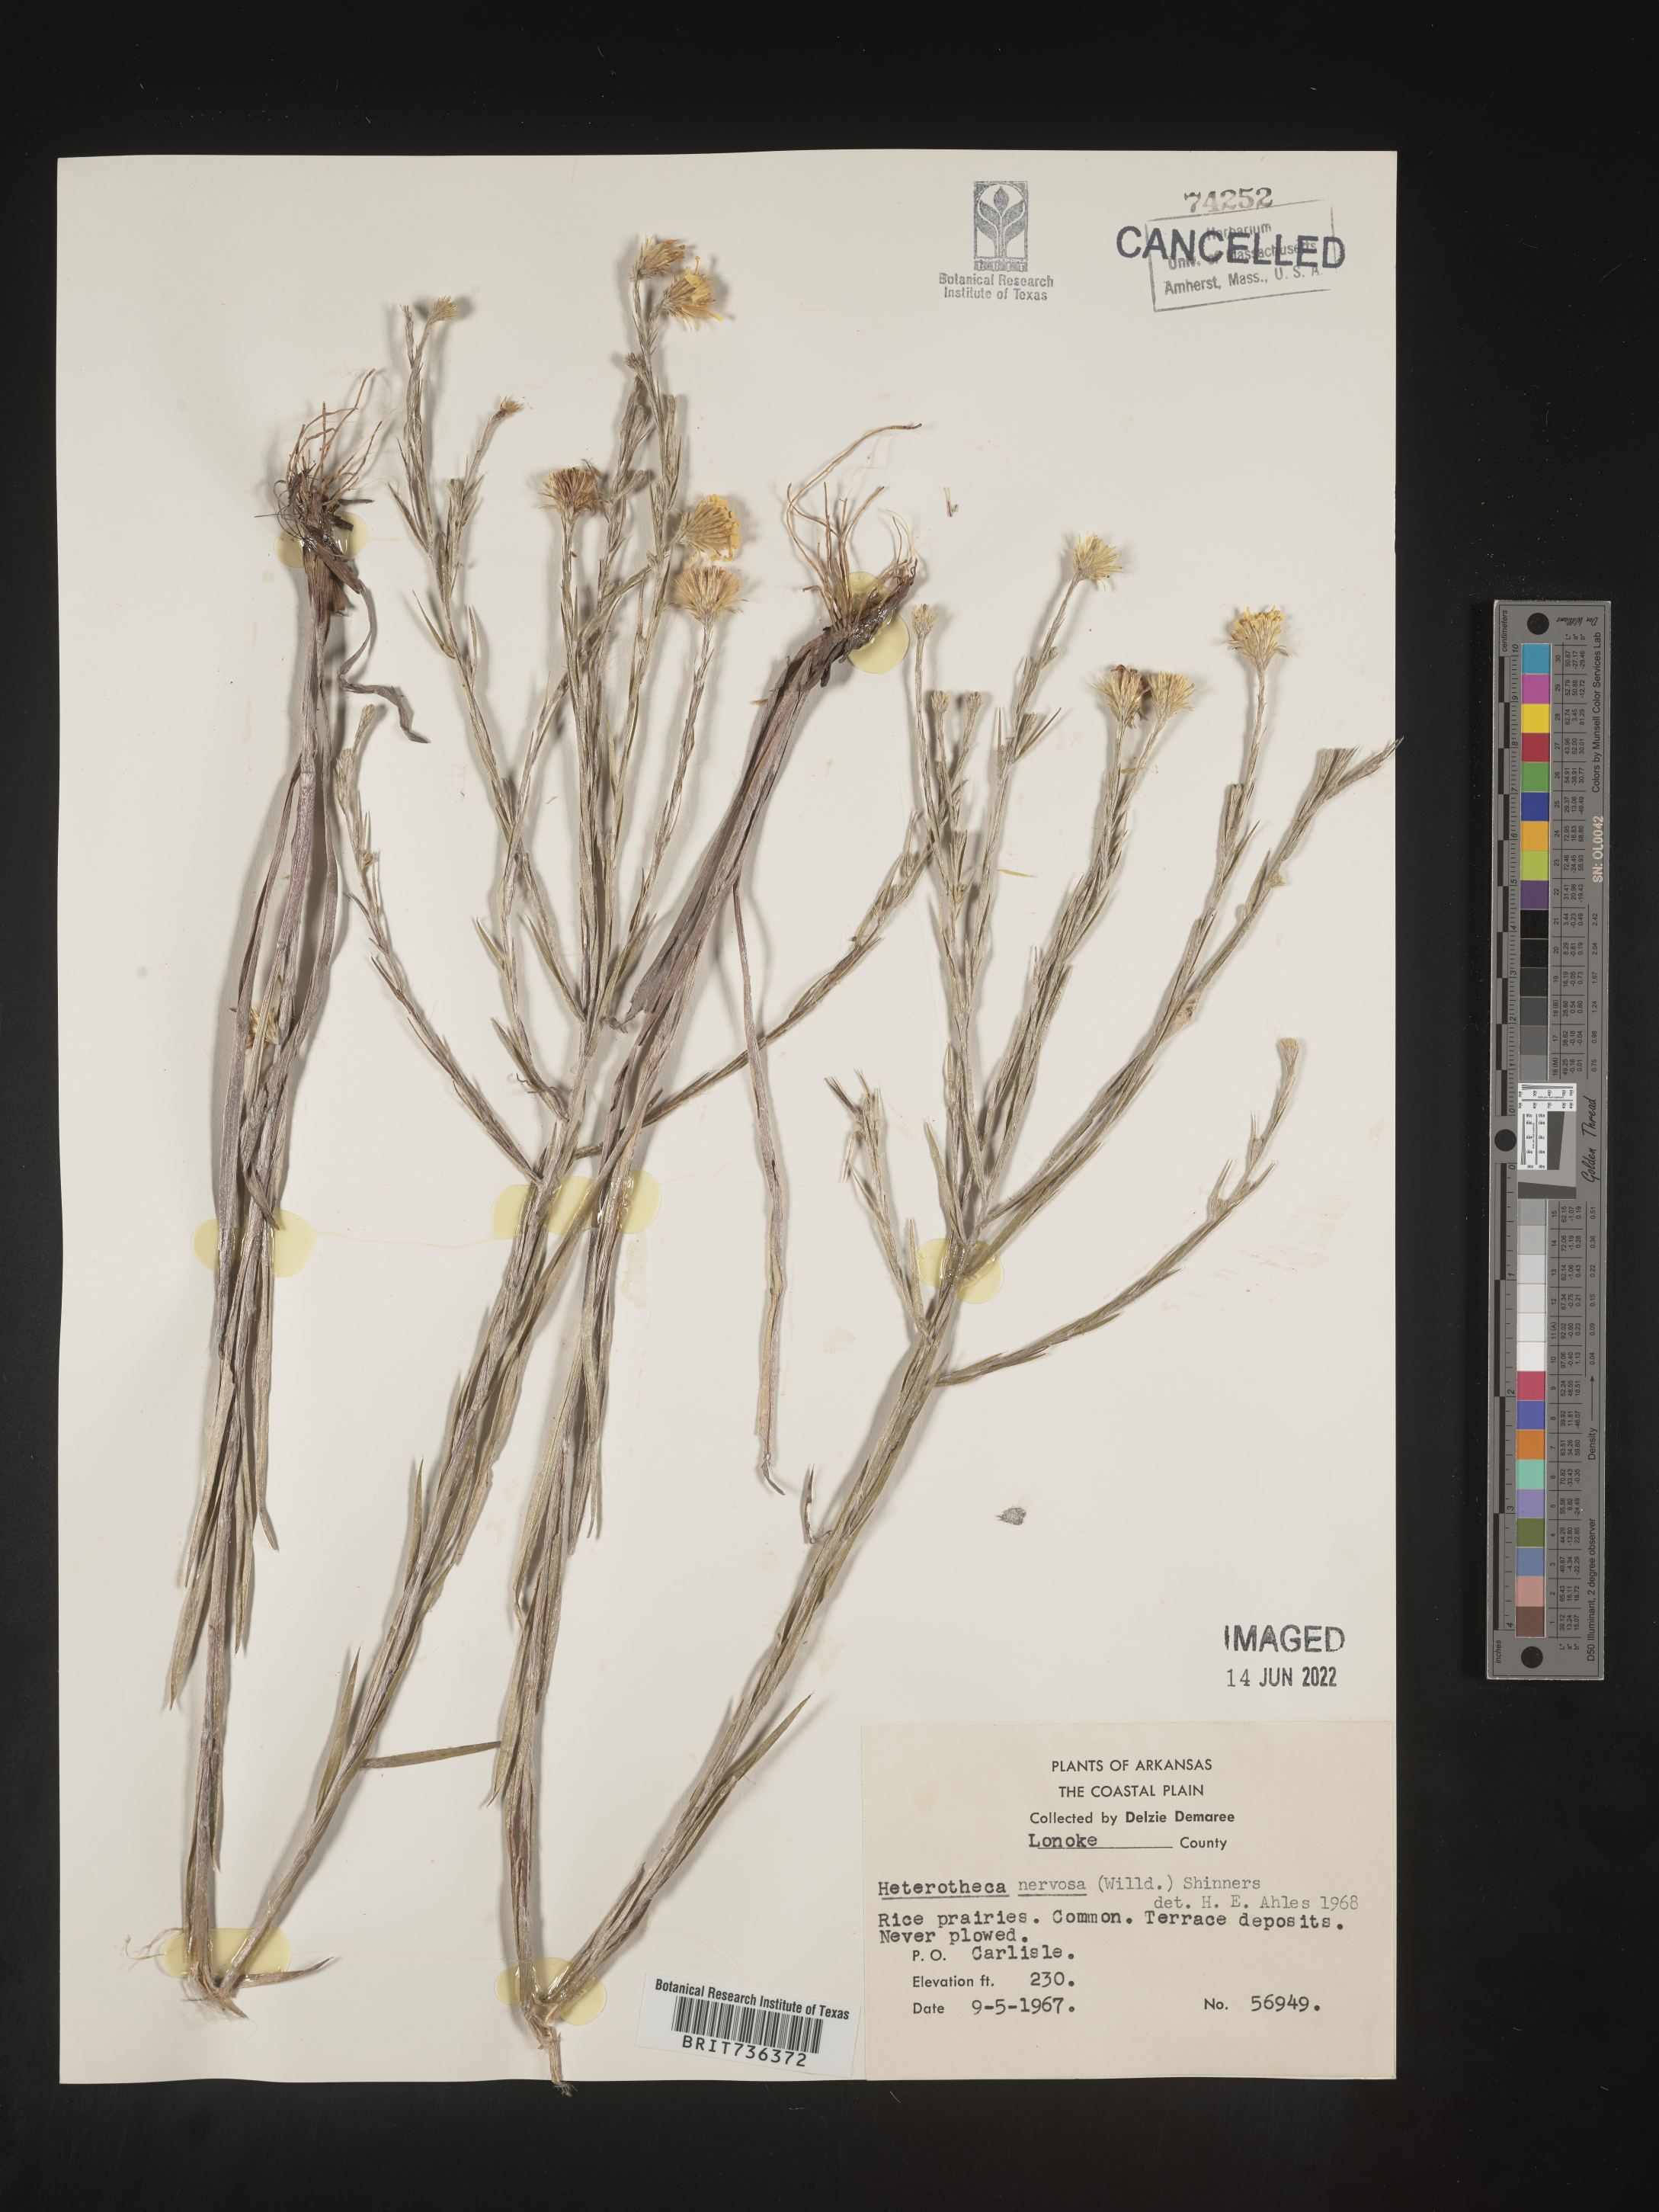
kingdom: Plantae
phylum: Tracheophyta
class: Magnoliopsida
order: Asterales
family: Asteraceae
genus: Pityopsis
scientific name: Pityopsis tenuifolia
